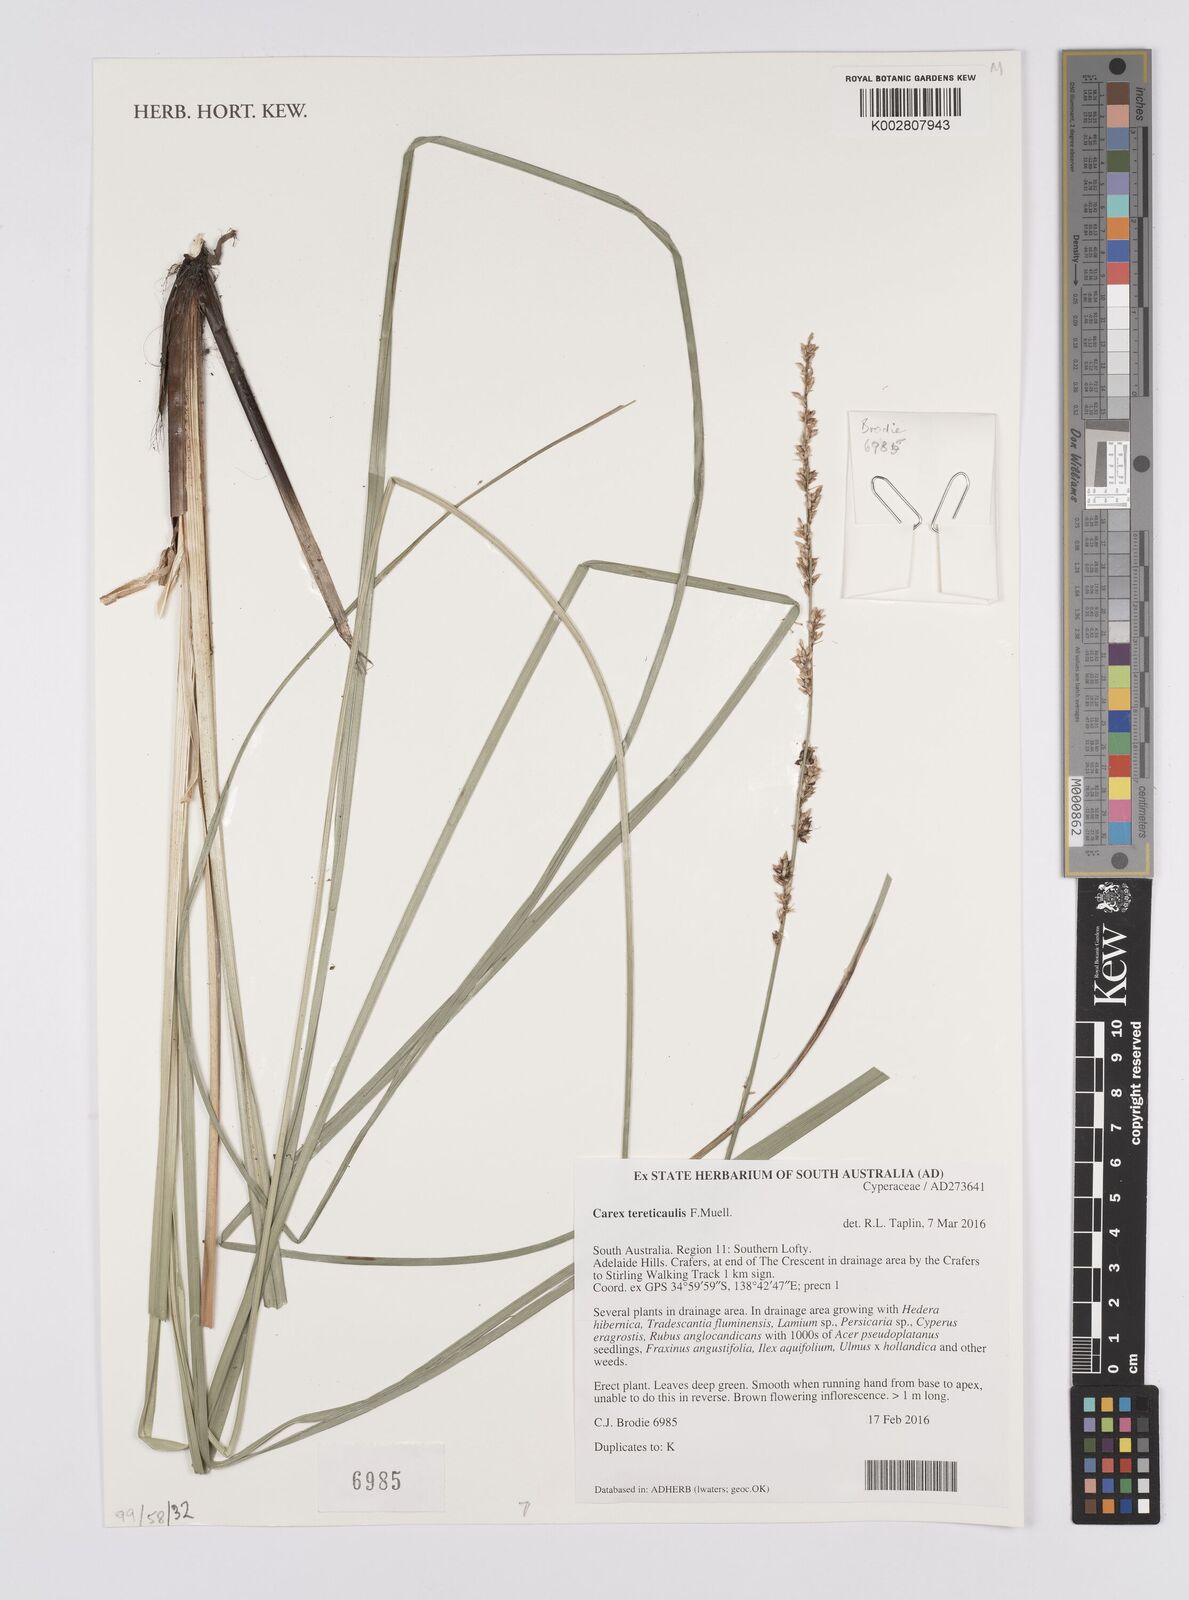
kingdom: Plantae
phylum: Tracheophyta
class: Liliopsida
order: Poales
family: Cyperaceae
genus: Carex
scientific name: Carex tereticaulis
